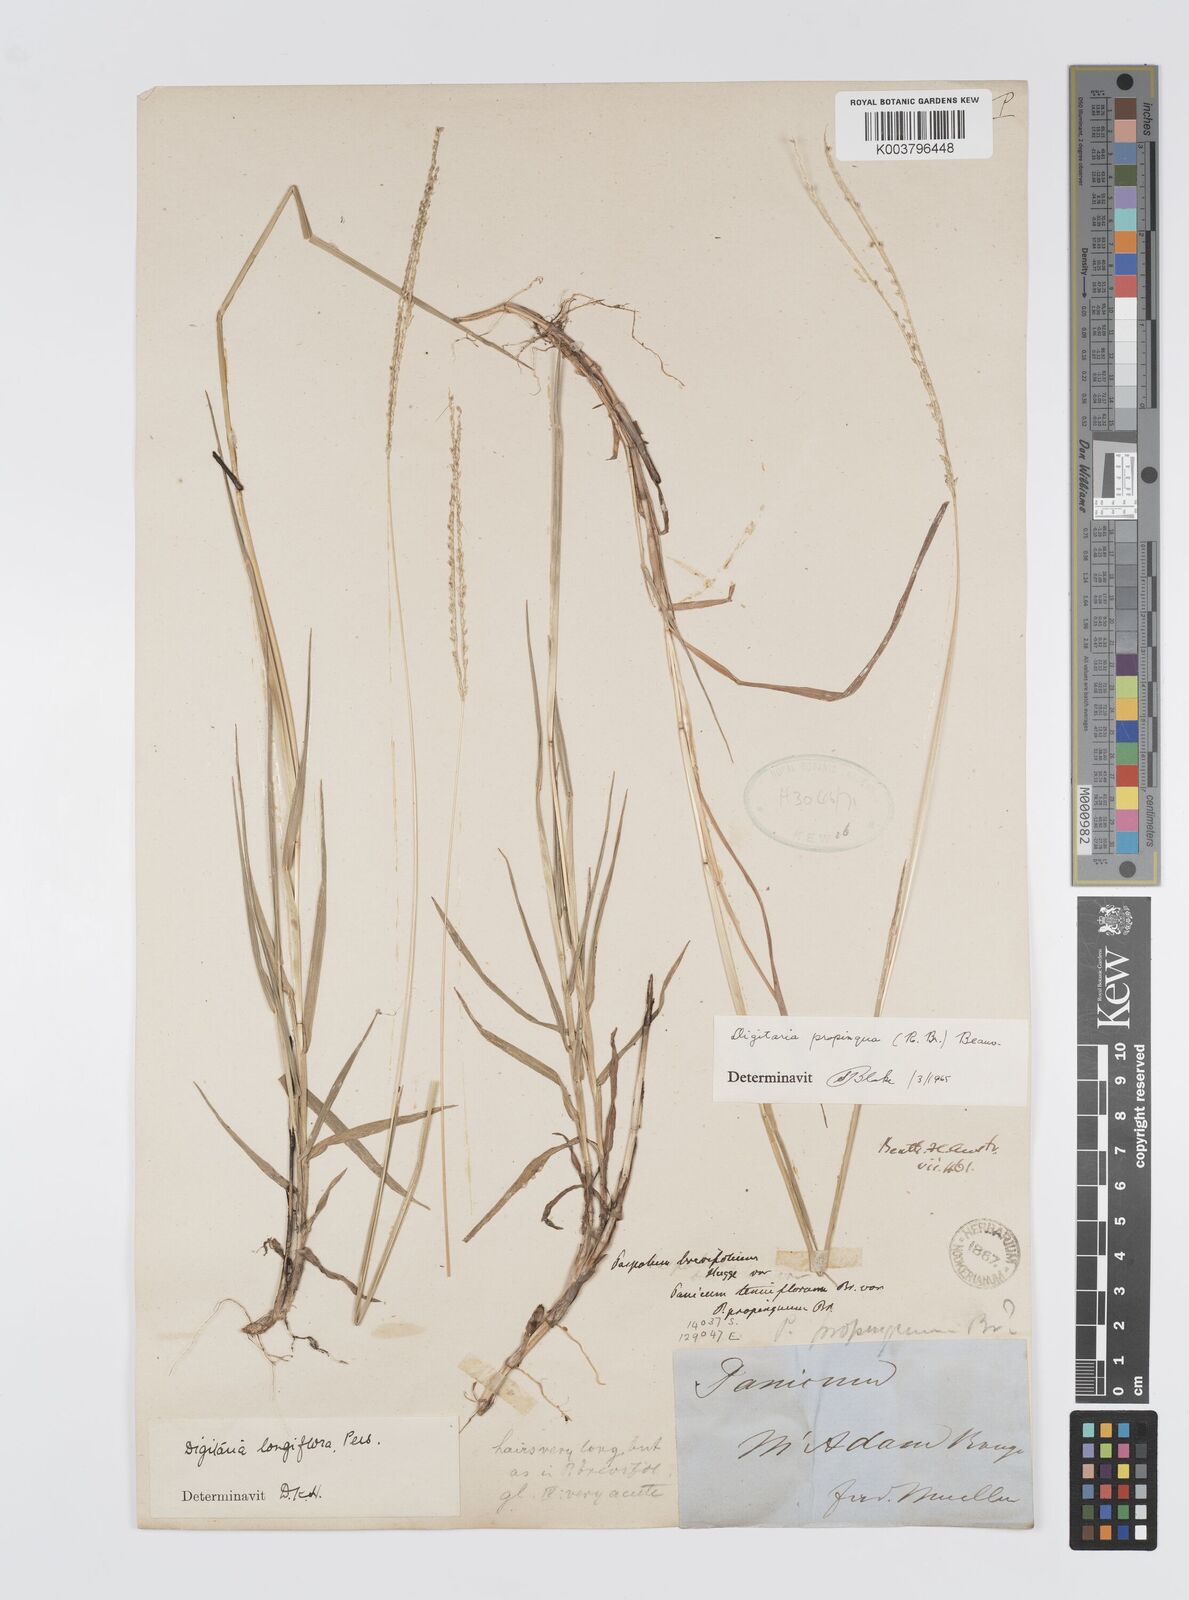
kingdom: Plantae
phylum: Tracheophyta
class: Liliopsida
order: Poales
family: Poaceae
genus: Digitaria
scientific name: Digitaria longiflora
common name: Wire crabgrass
